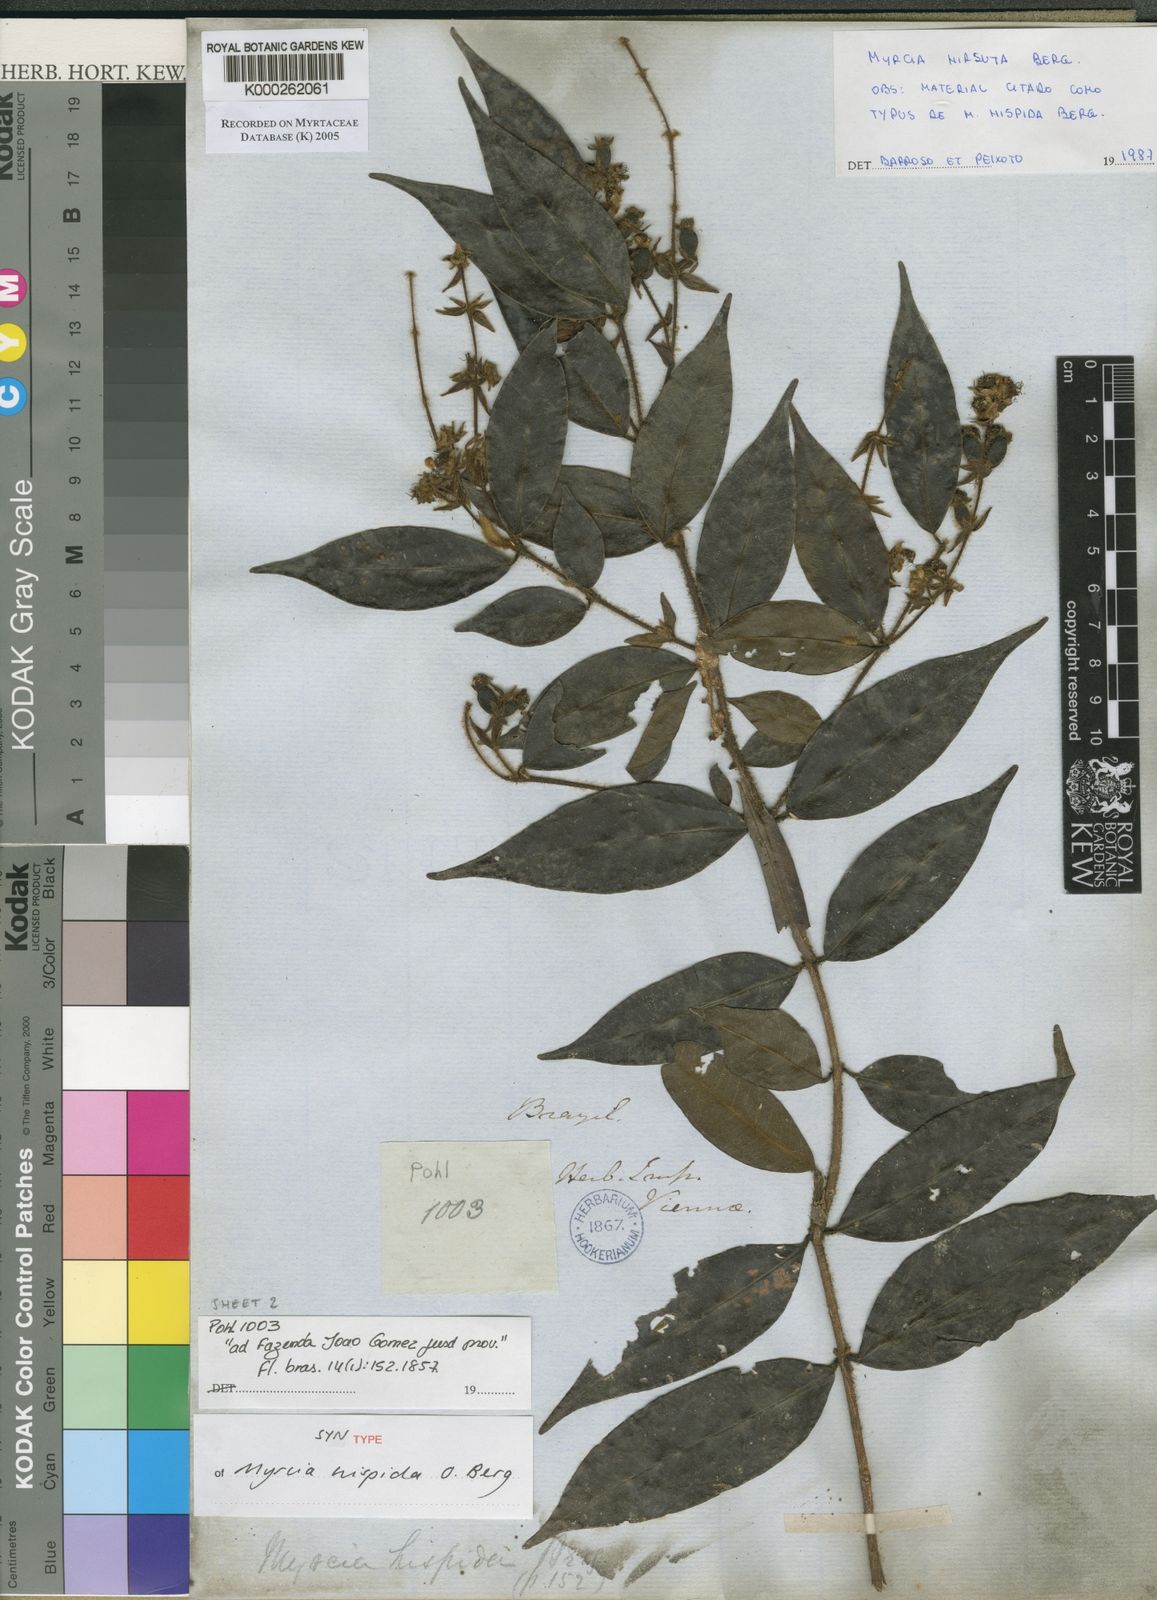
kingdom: Plantae
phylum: Tracheophyta
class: Magnoliopsida
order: Myrtales
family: Myrtaceae
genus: Myrcia
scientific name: Myrcia eriopus
